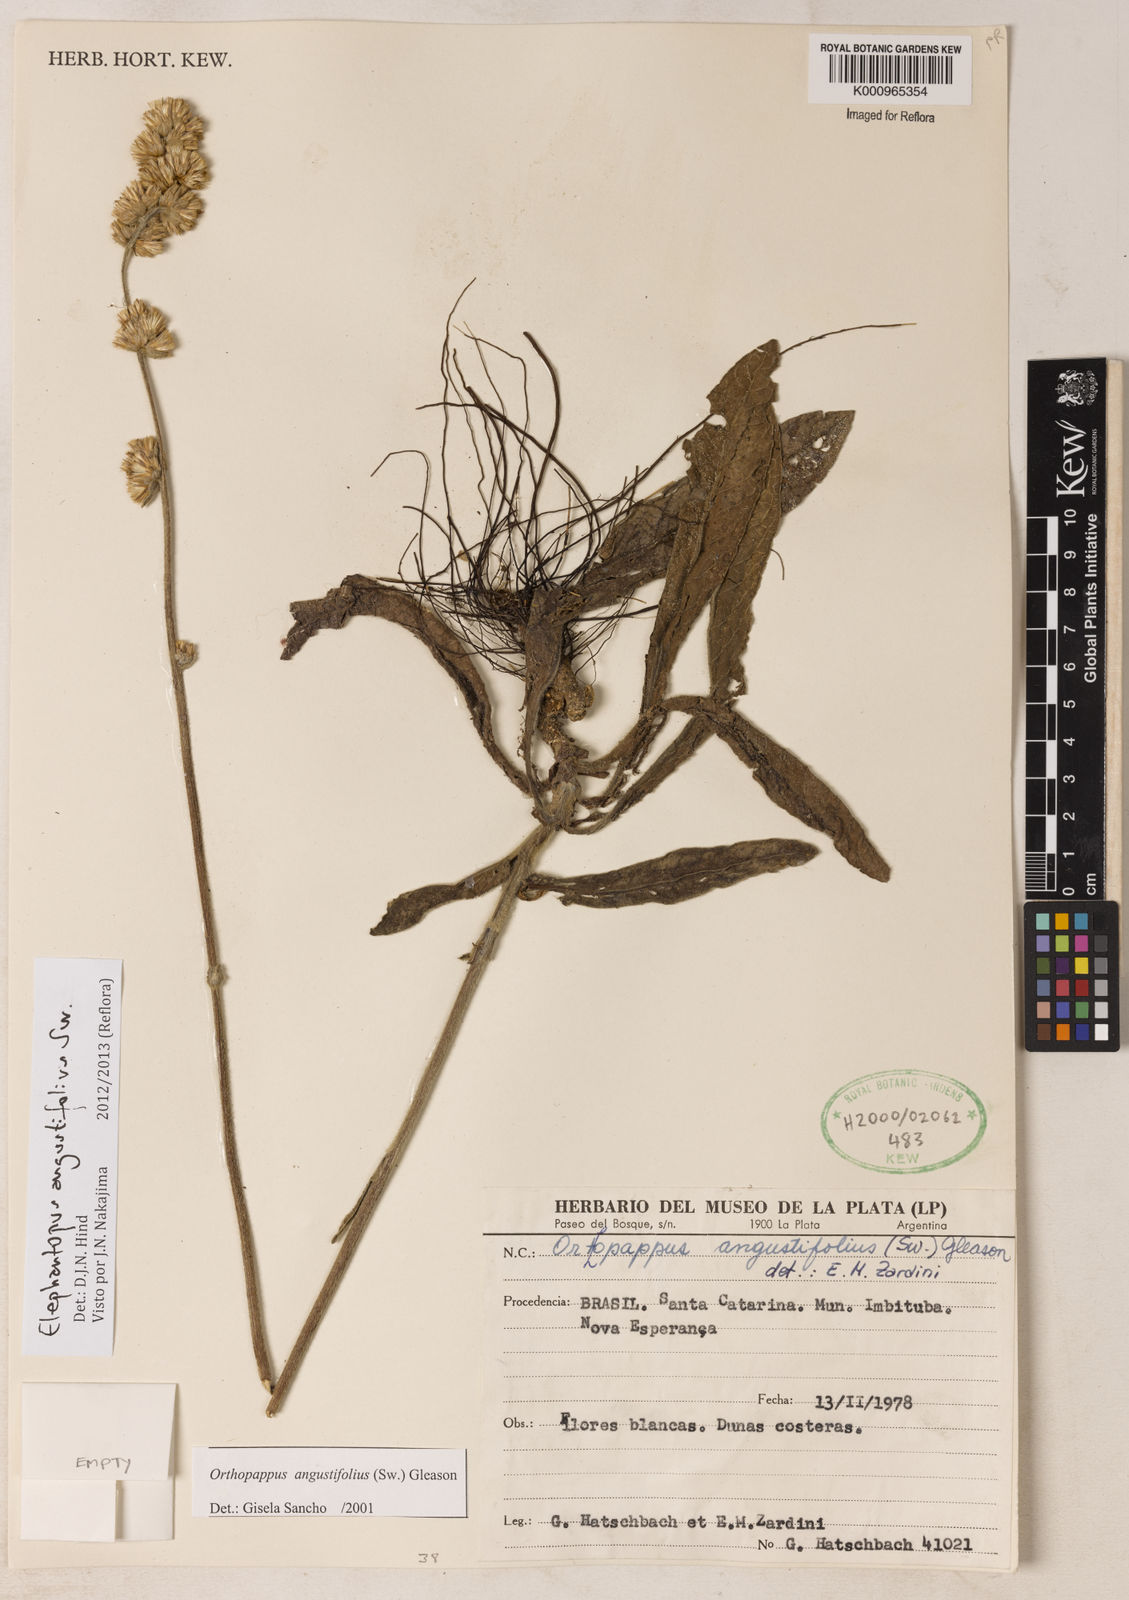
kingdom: Plantae
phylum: Tracheophyta
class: Magnoliopsida
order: Asterales
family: Asteraceae
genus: Orthopappus
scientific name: Orthopappus angustifolius
